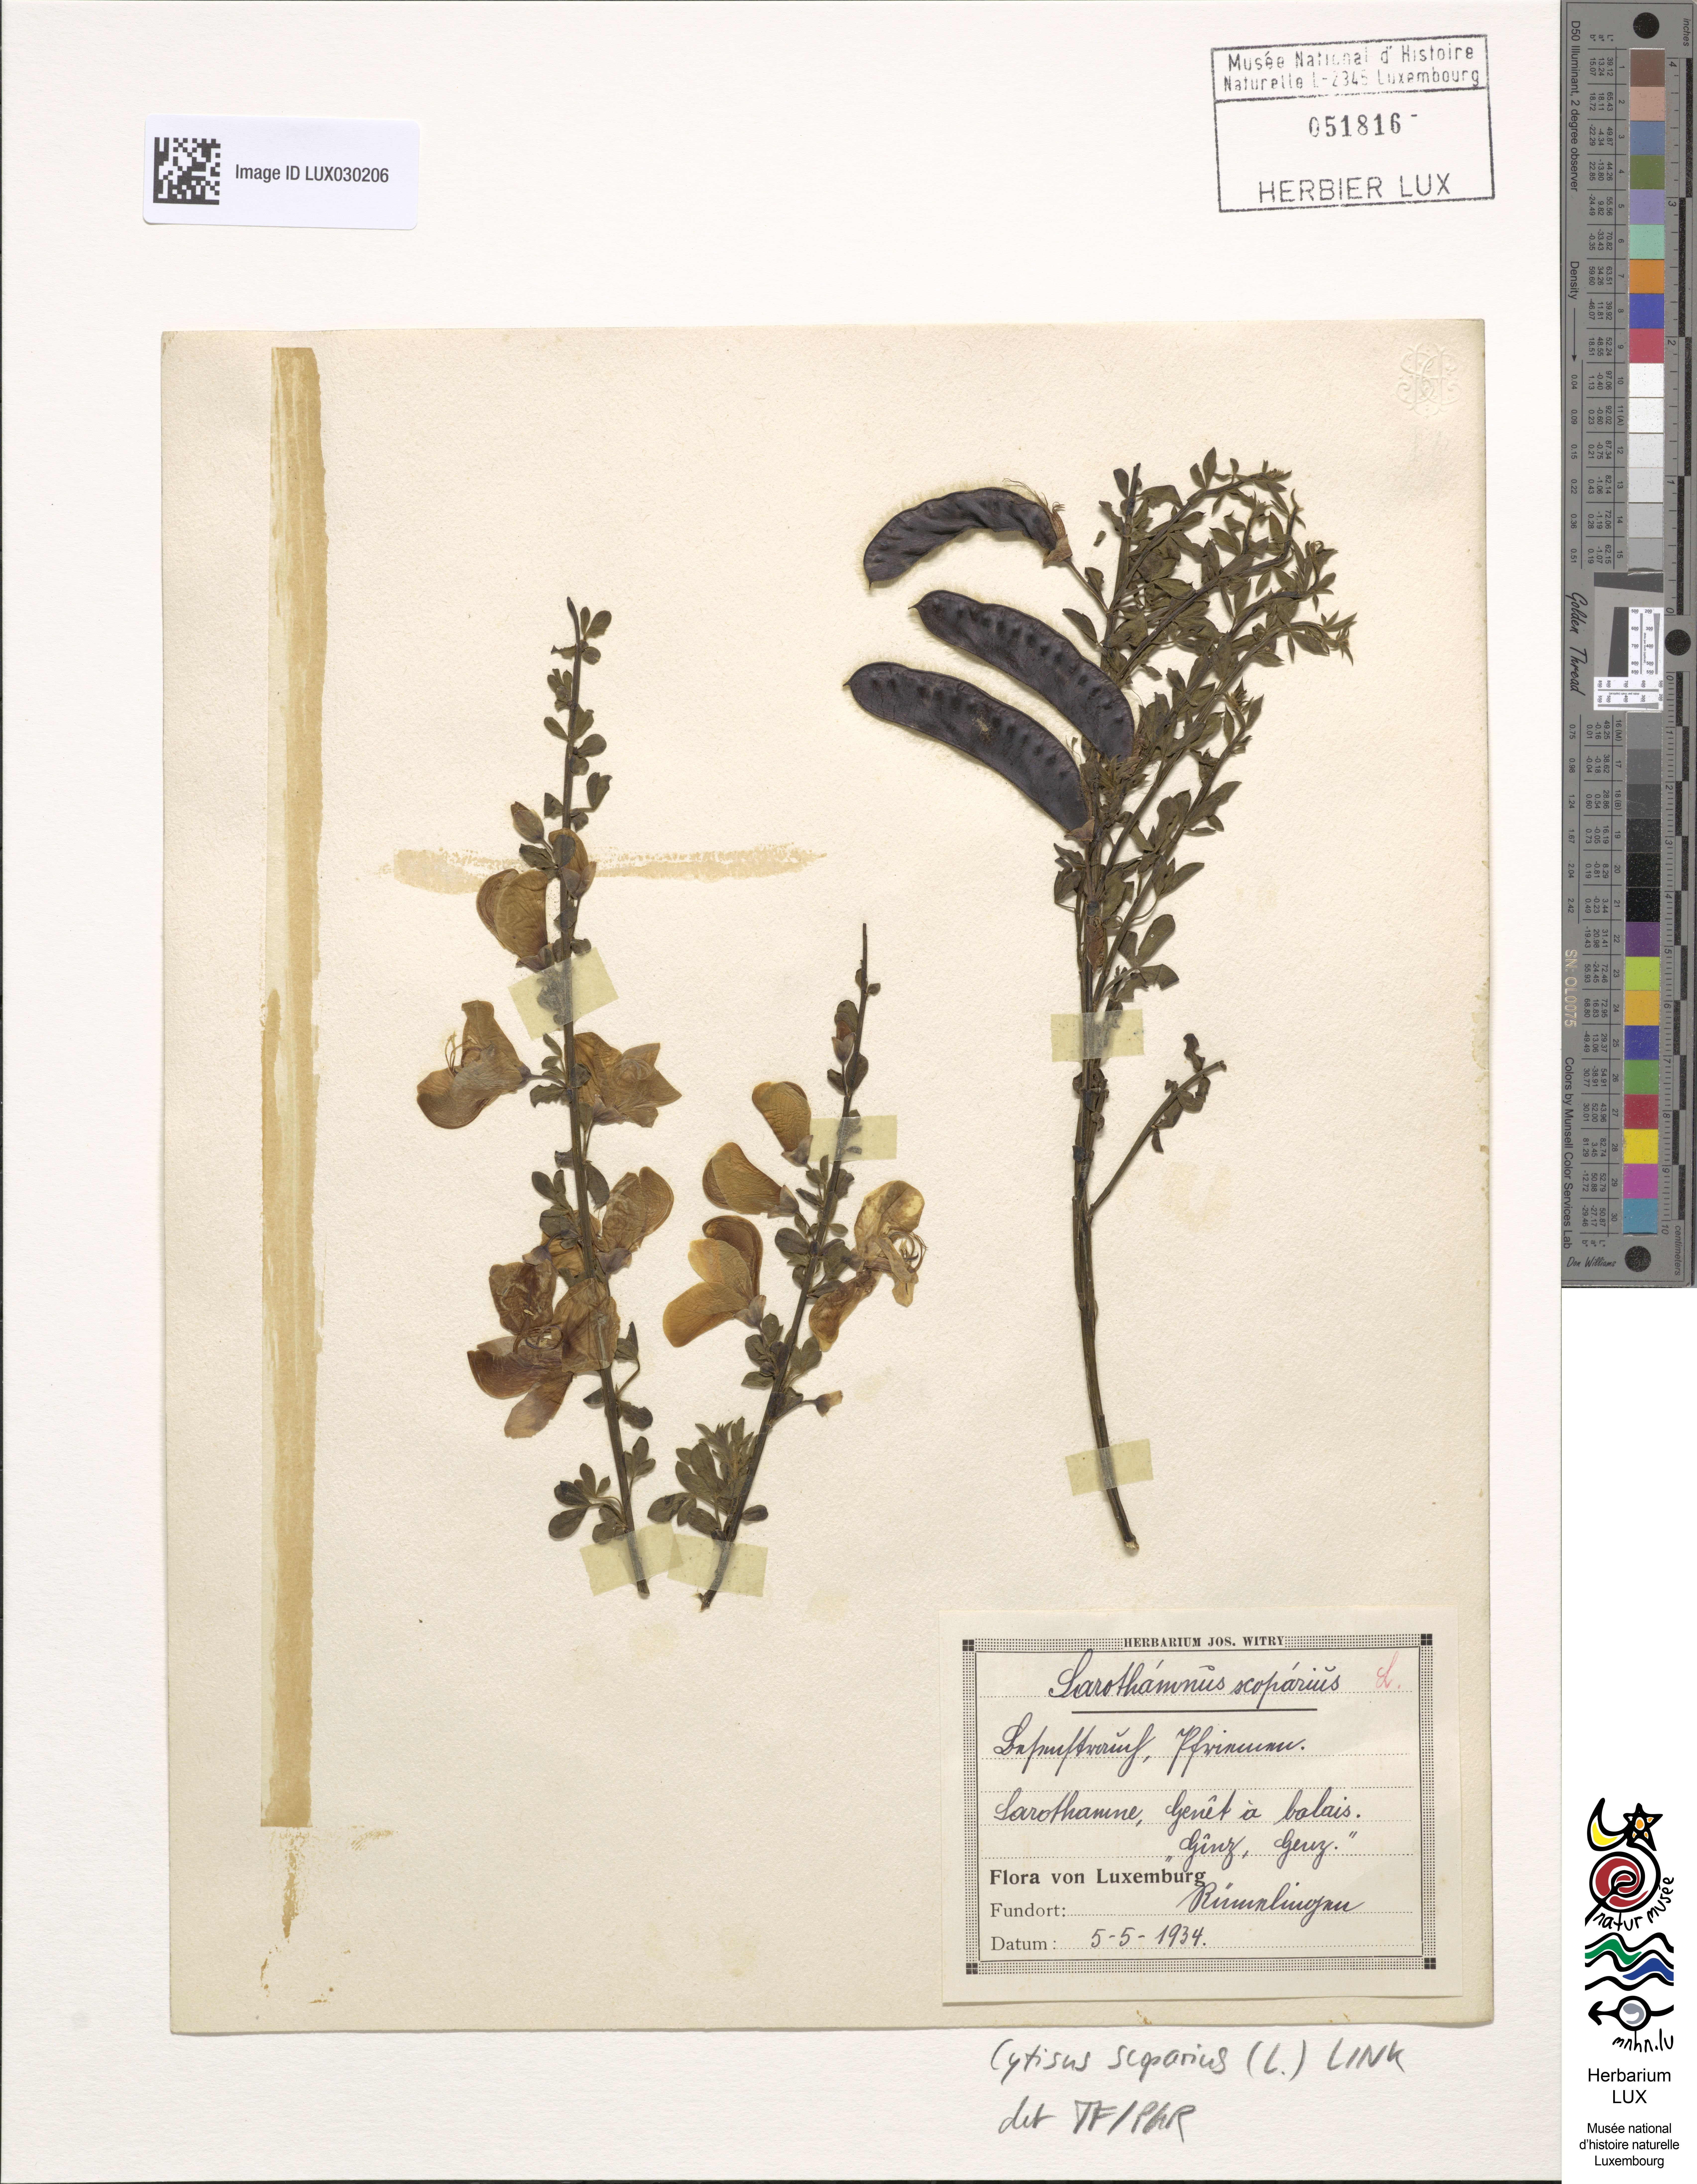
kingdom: Plantae
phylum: Tracheophyta
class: Magnoliopsida
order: Fabales
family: Fabaceae
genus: Cytisus
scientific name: Cytisus scoparius
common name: Scotch broom
